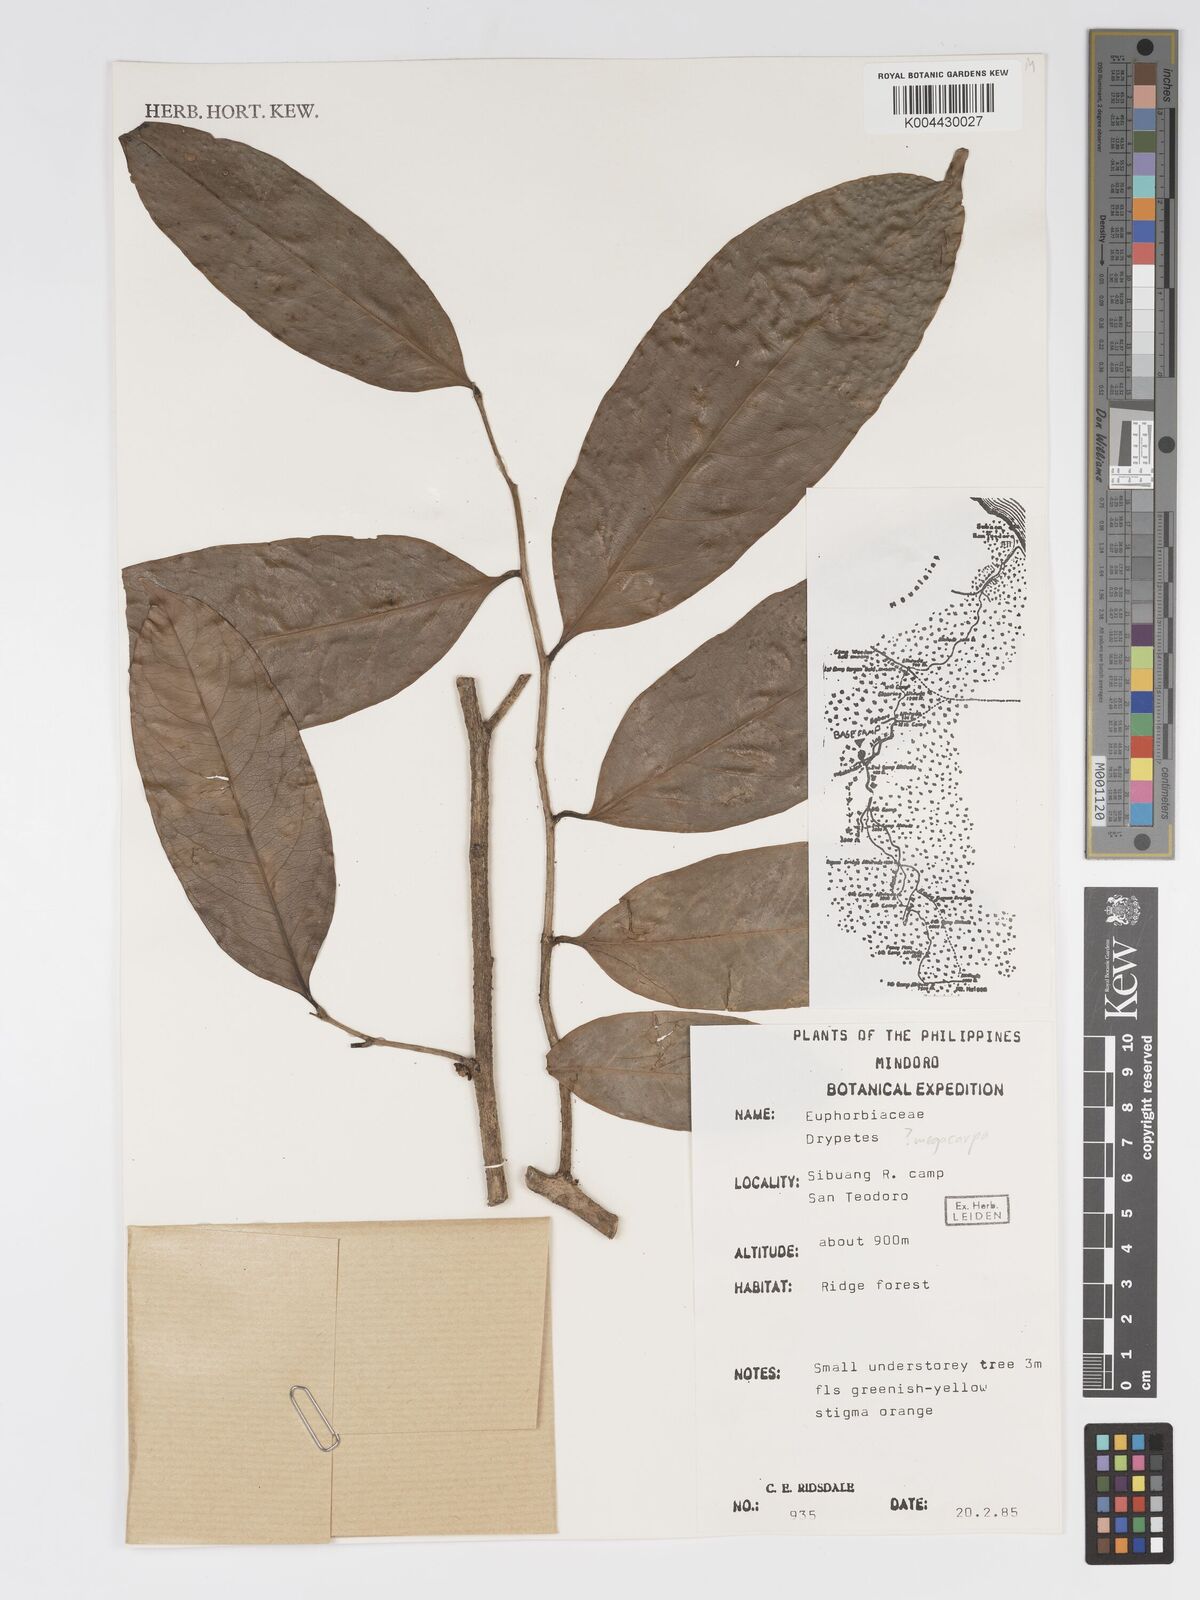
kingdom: Plantae
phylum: Tracheophyta
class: Magnoliopsida
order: Malpighiales
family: Putranjivaceae
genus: Drypetes
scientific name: Drypetes grandifolia
